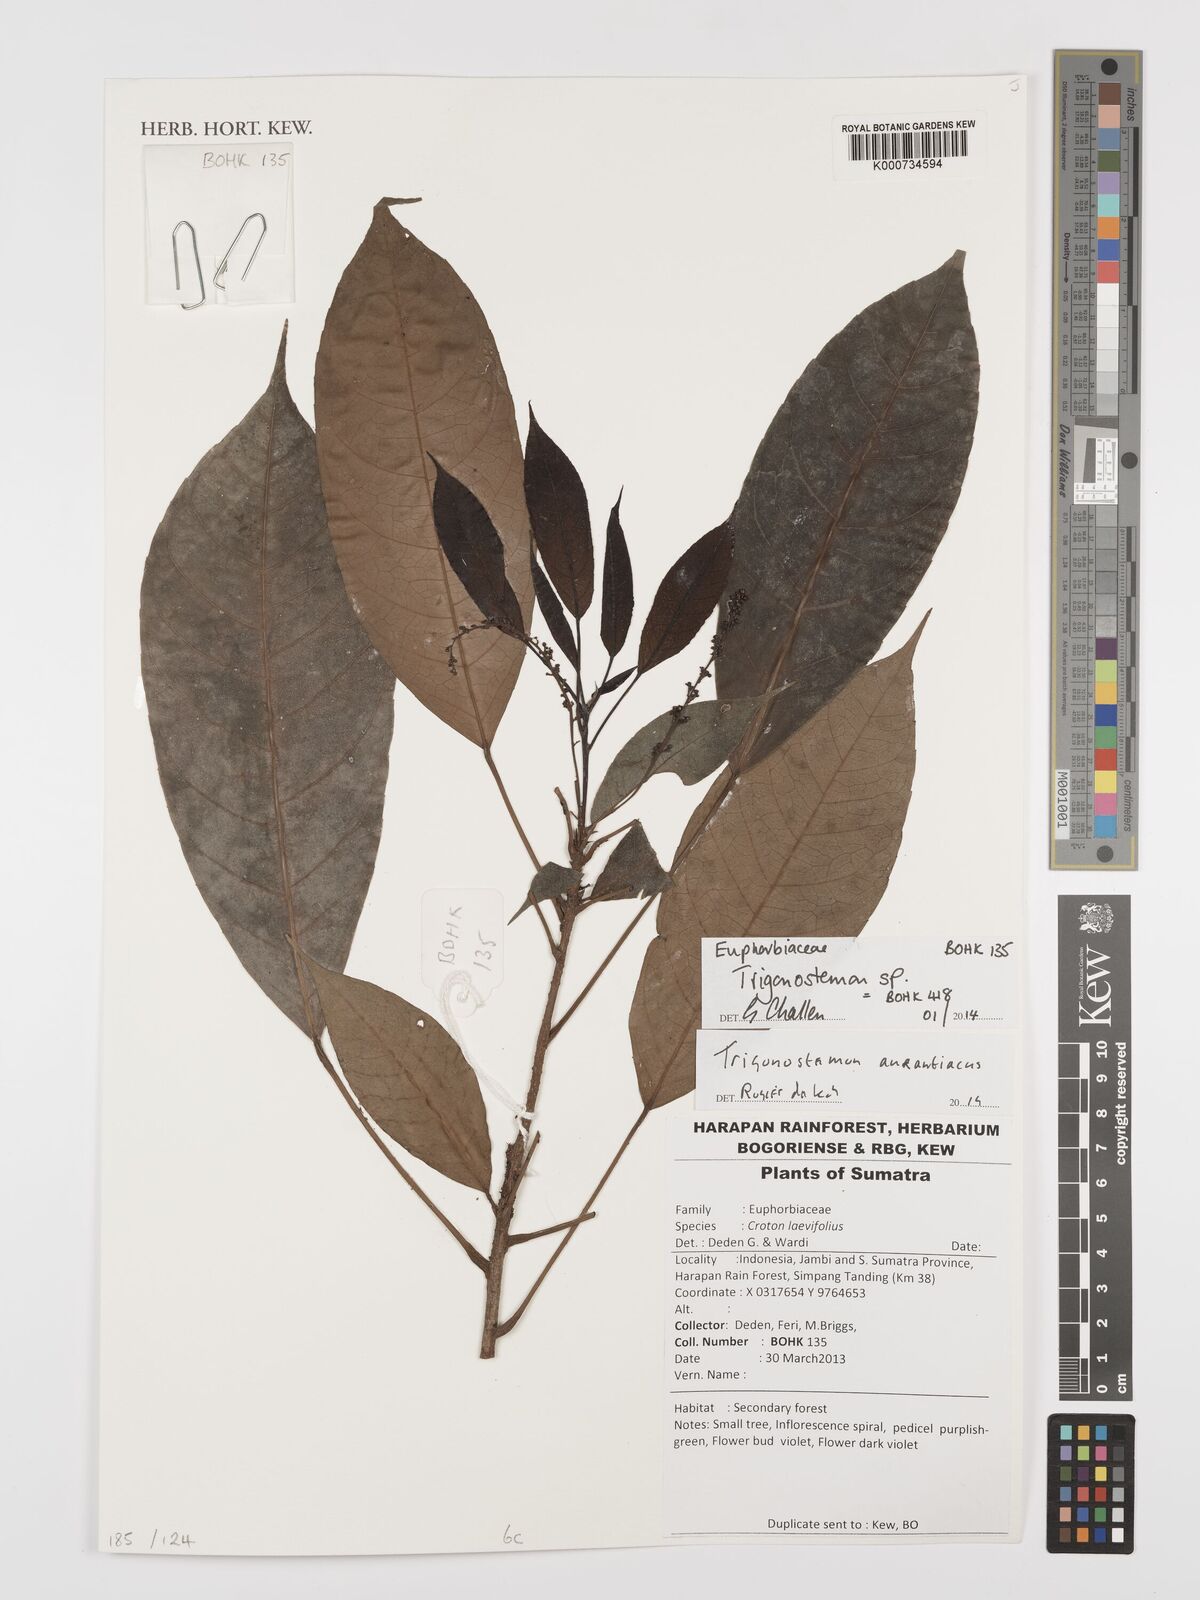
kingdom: Plantae
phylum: Tracheophyta
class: Magnoliopsida
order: Malpighiales
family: Euphorbiaceae
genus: Trigonostemon
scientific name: Trigonostemon
